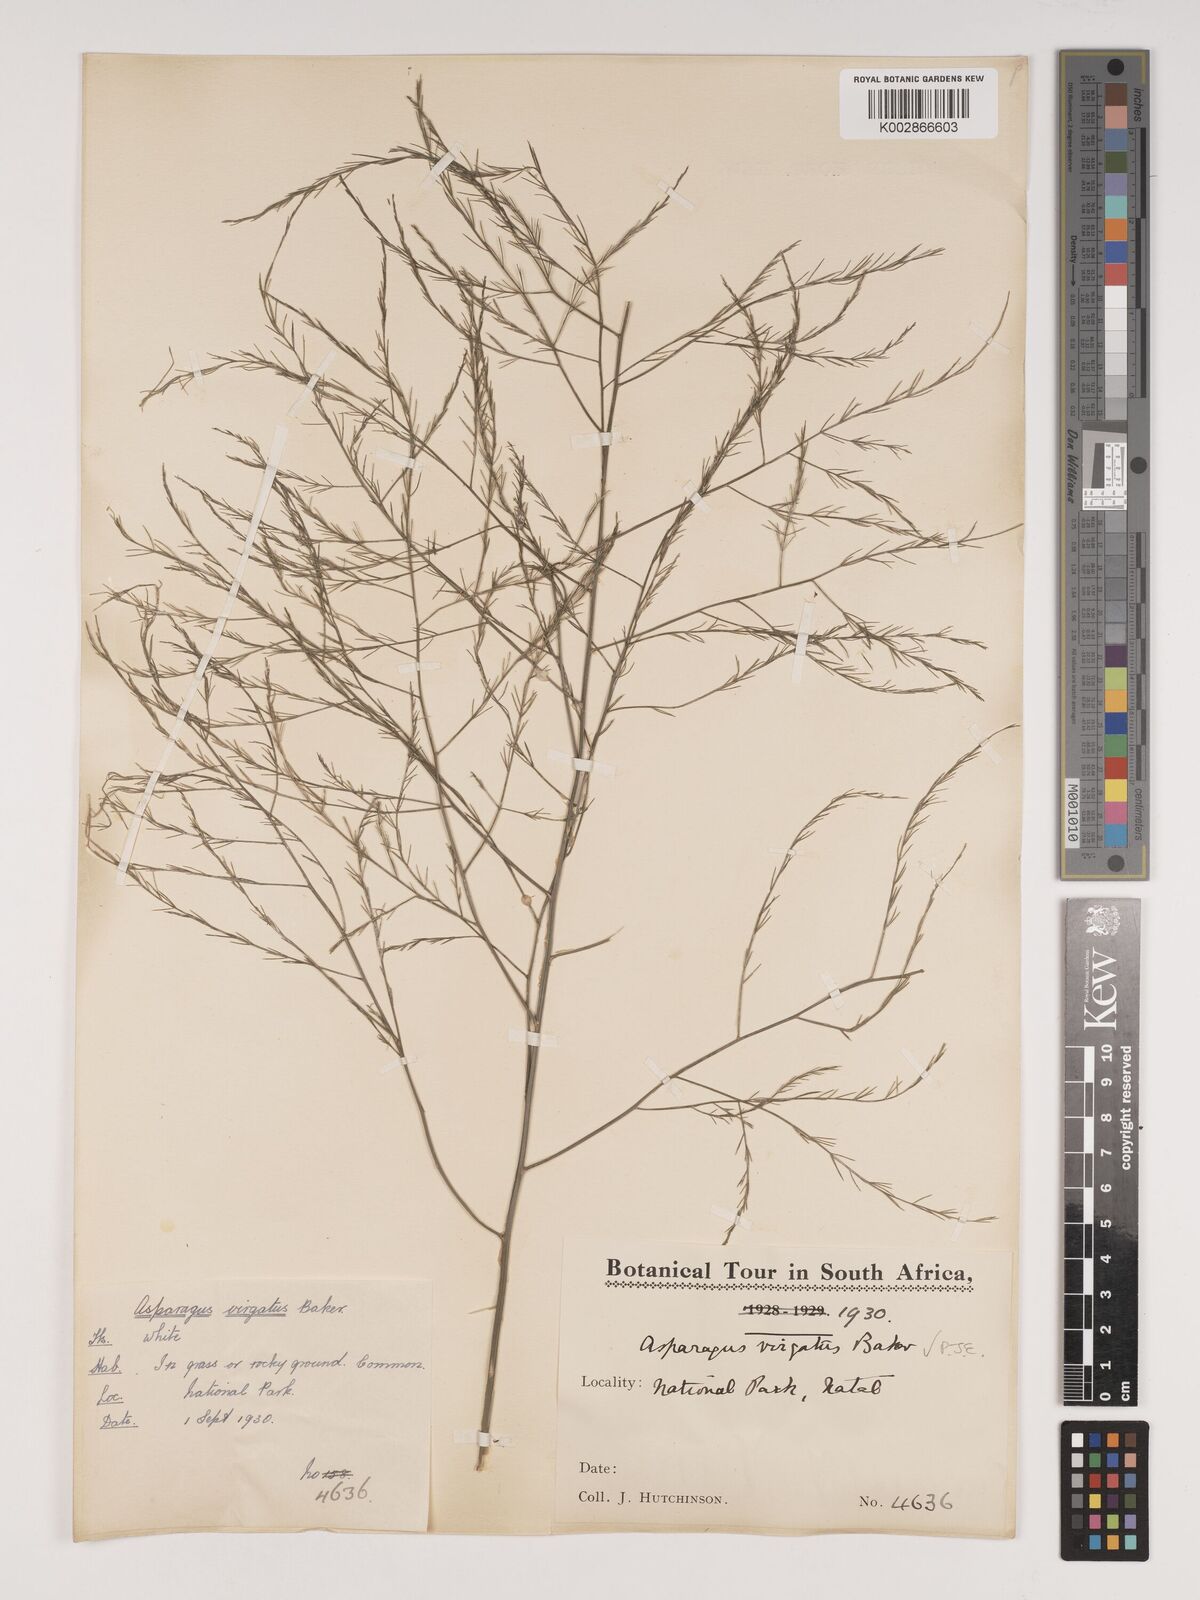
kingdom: Plantae
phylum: Tracheophyta
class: Liliopsida
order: Asparagales
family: Asparagaceae
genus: Asparagus
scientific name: Asparagus virgatus
